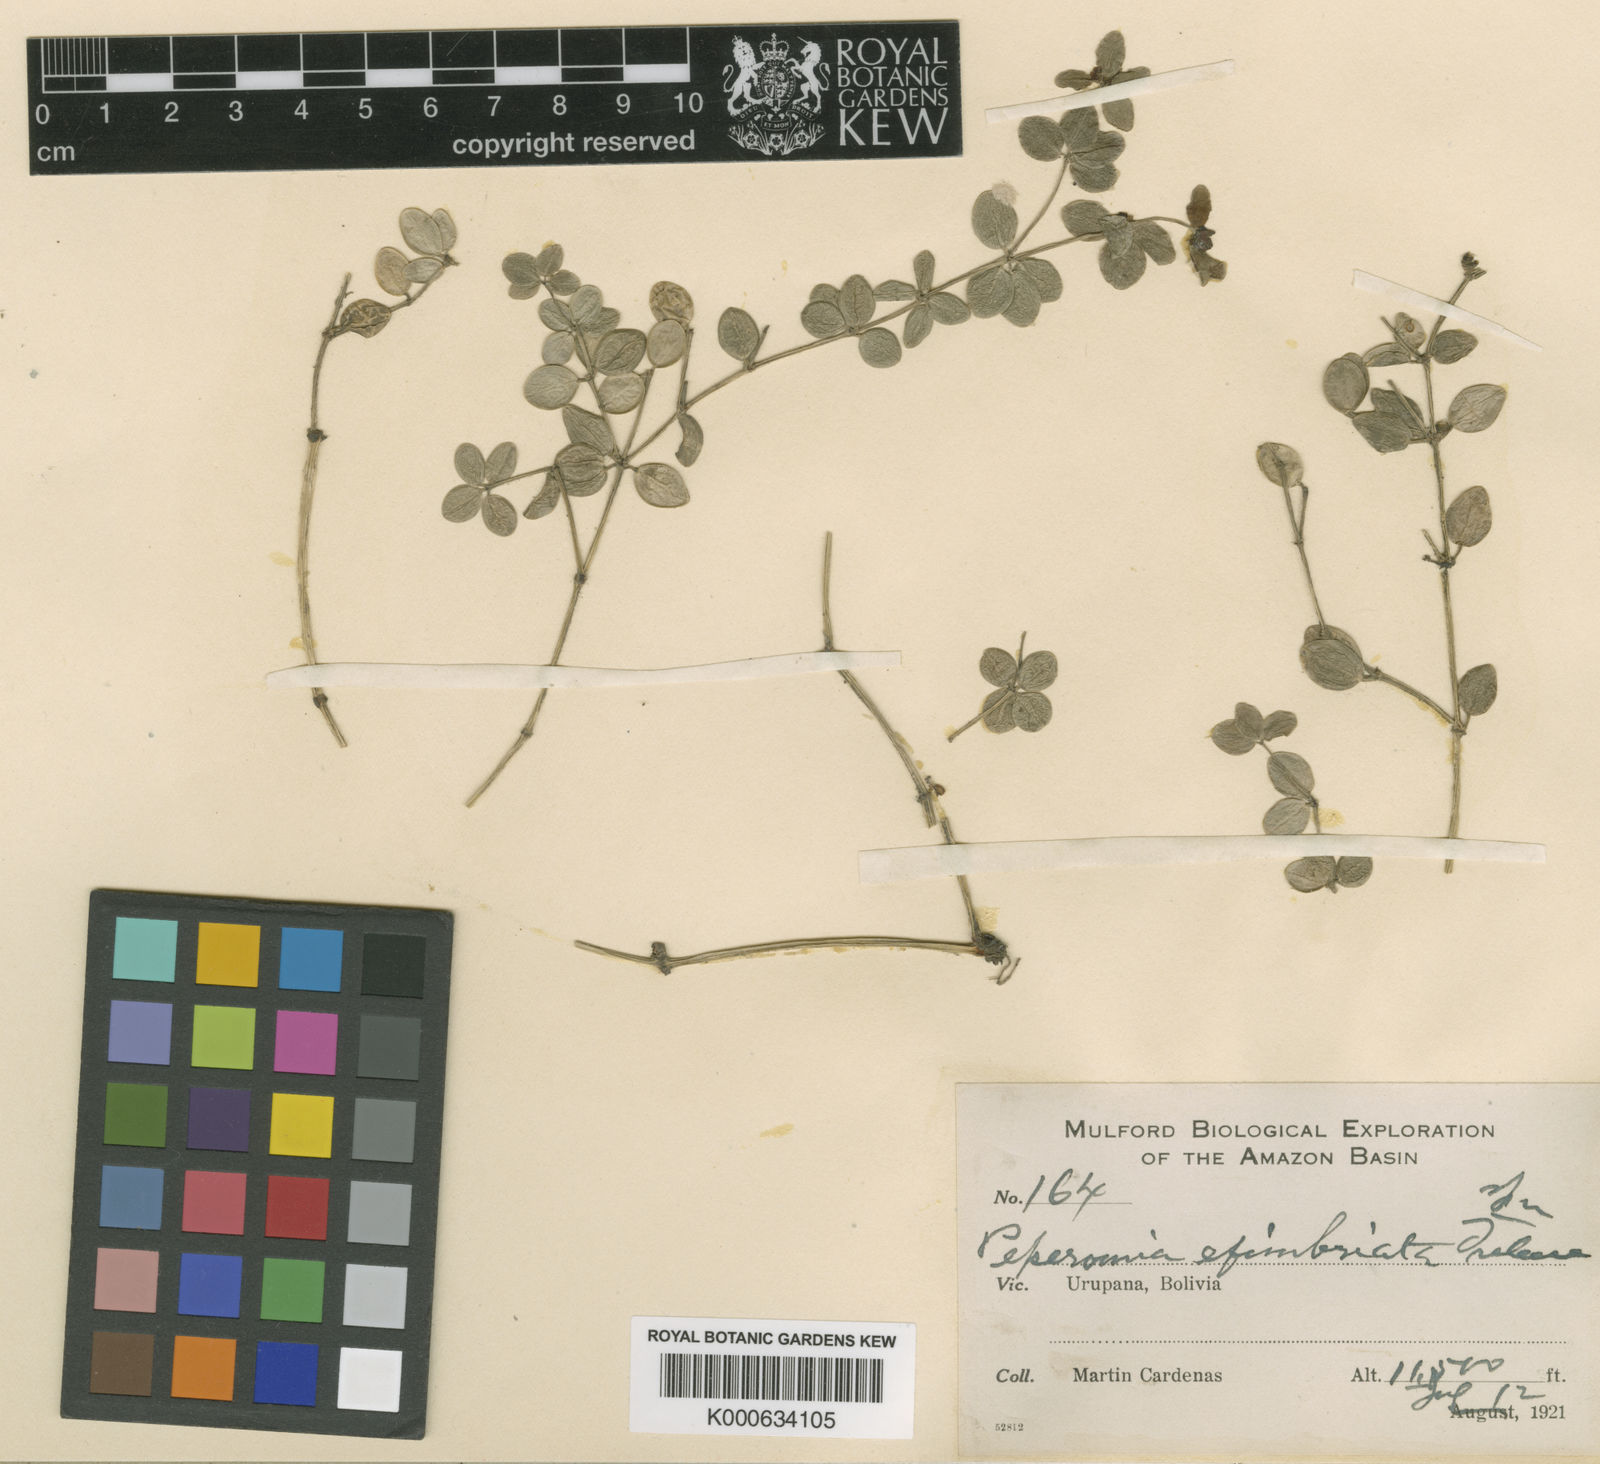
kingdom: Plantae
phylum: Tracheophyta
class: Magnoliopsida
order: Piperales
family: Piperaceae
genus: Peperomia
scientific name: Peperomia efimbriata
